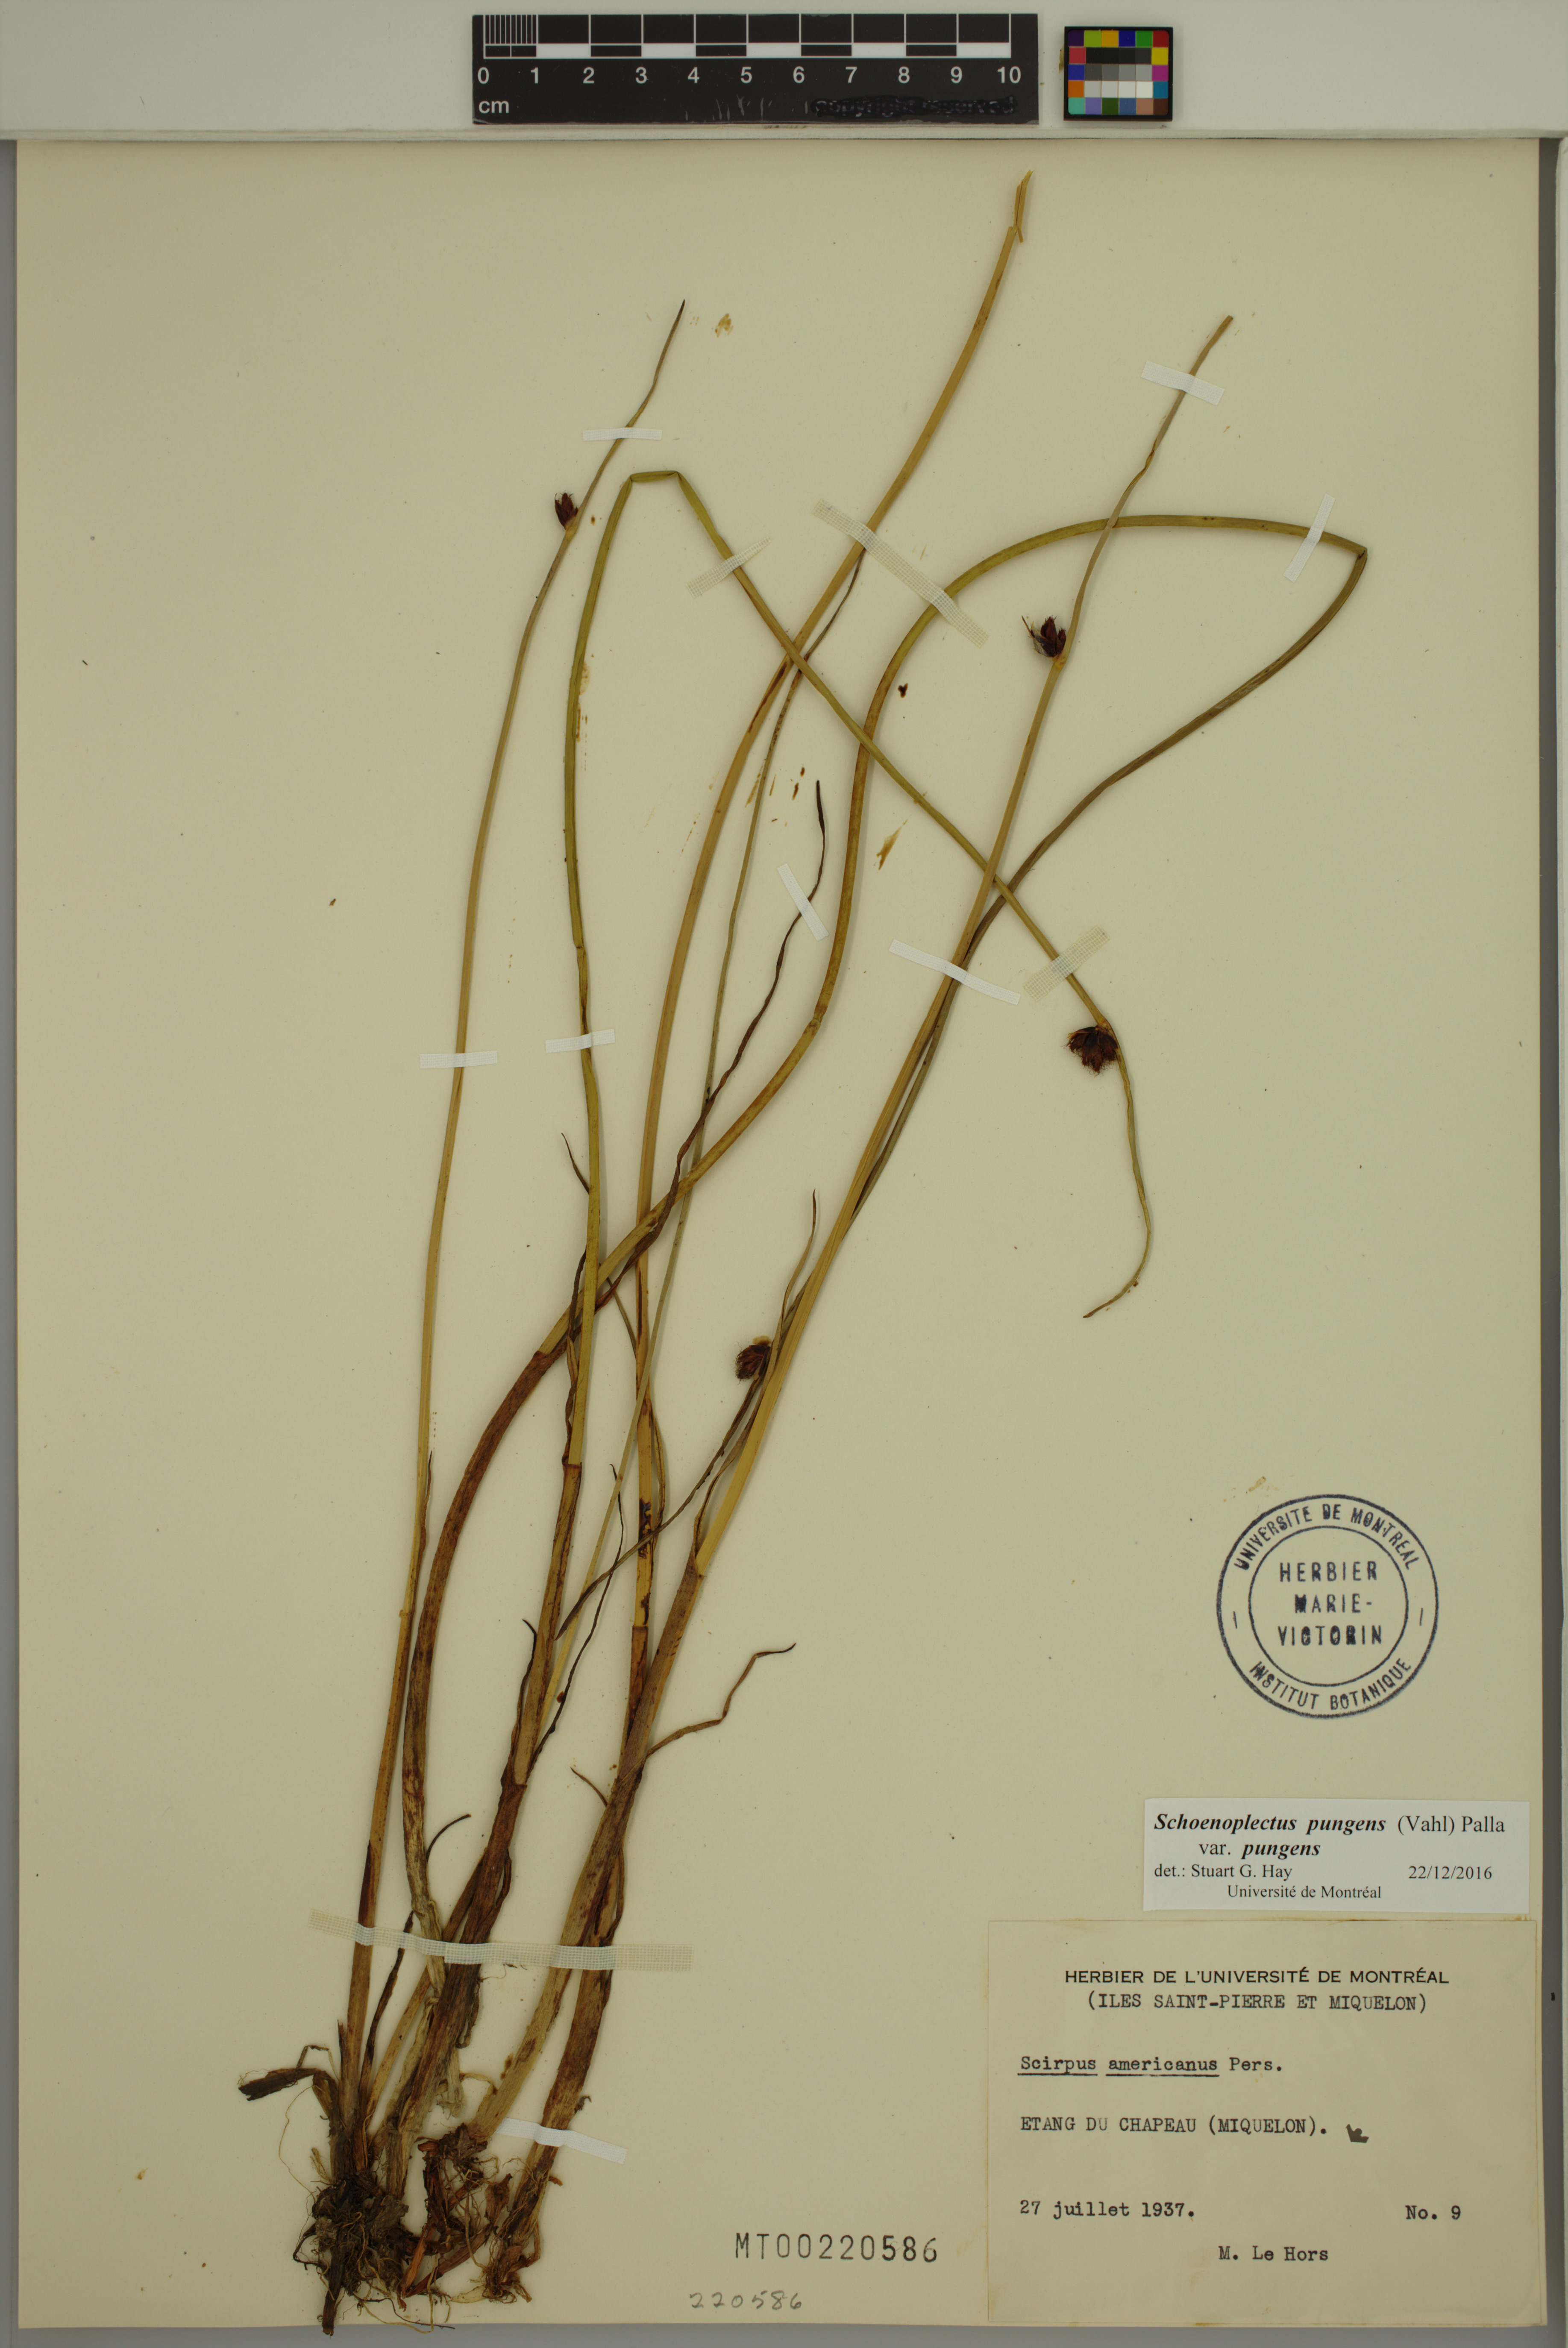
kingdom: Plantae
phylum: Tracheophyta
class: Liliopsida
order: Poales
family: Cyperaceae
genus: Schoenoplectus
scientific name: Schoenoplectus pungens
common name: Sharp club-rush
